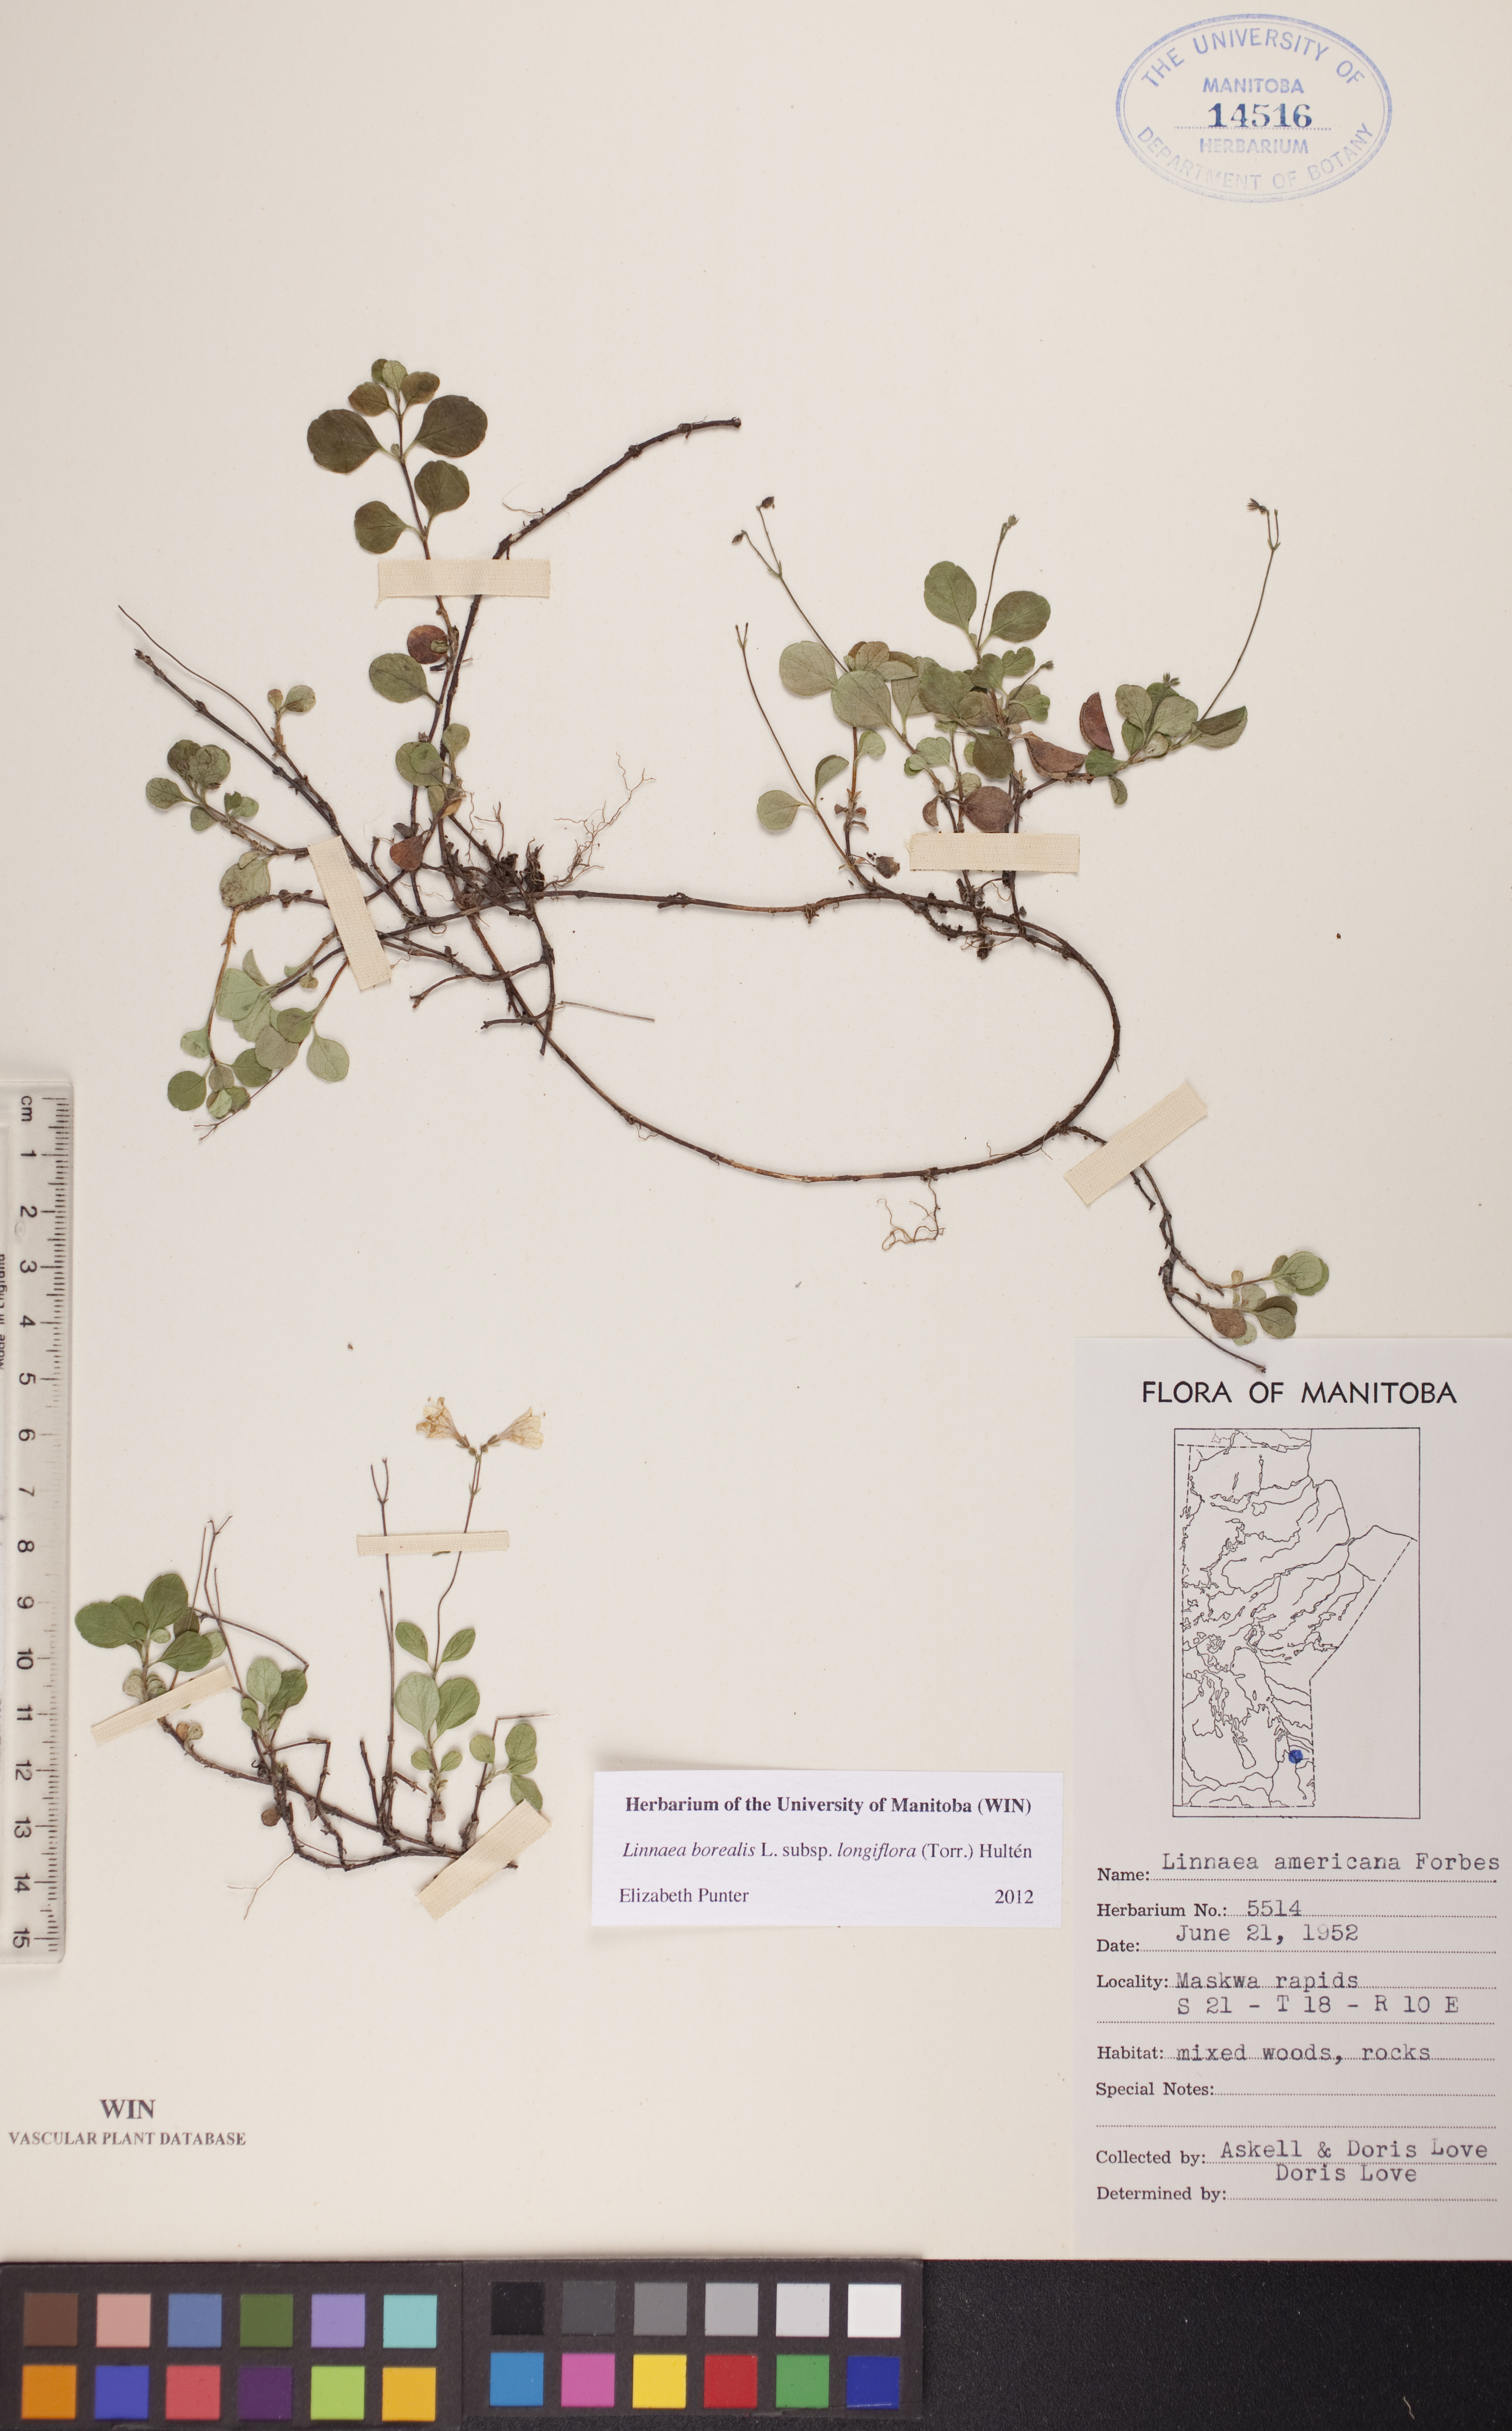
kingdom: Plantae
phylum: Tracheophyta
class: Magnoliopsida
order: Dipsacales
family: Caprifoliaceae
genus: Linnaea
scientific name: Linnaea borealis
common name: Twinflower
